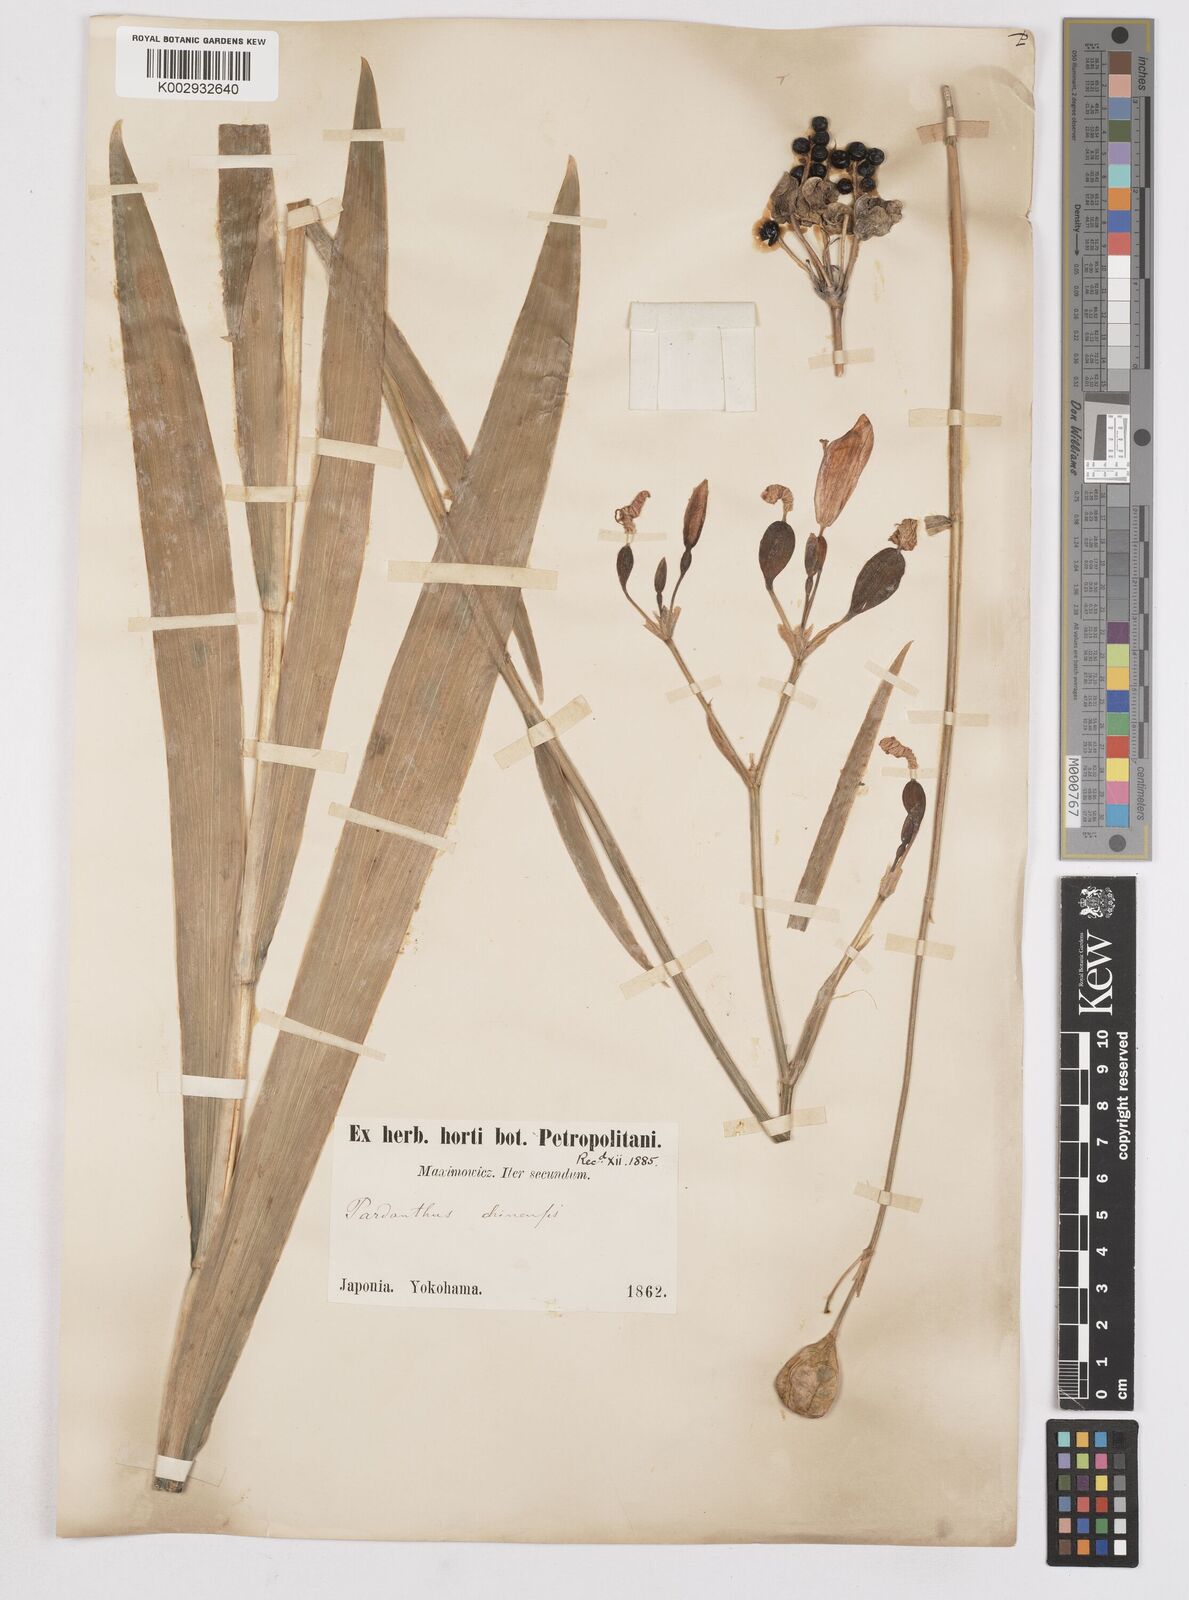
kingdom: Plantae
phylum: Tracheophyta
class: Liliopsida
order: Asparagales
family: Iridaceae
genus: Iris
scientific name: Iris
